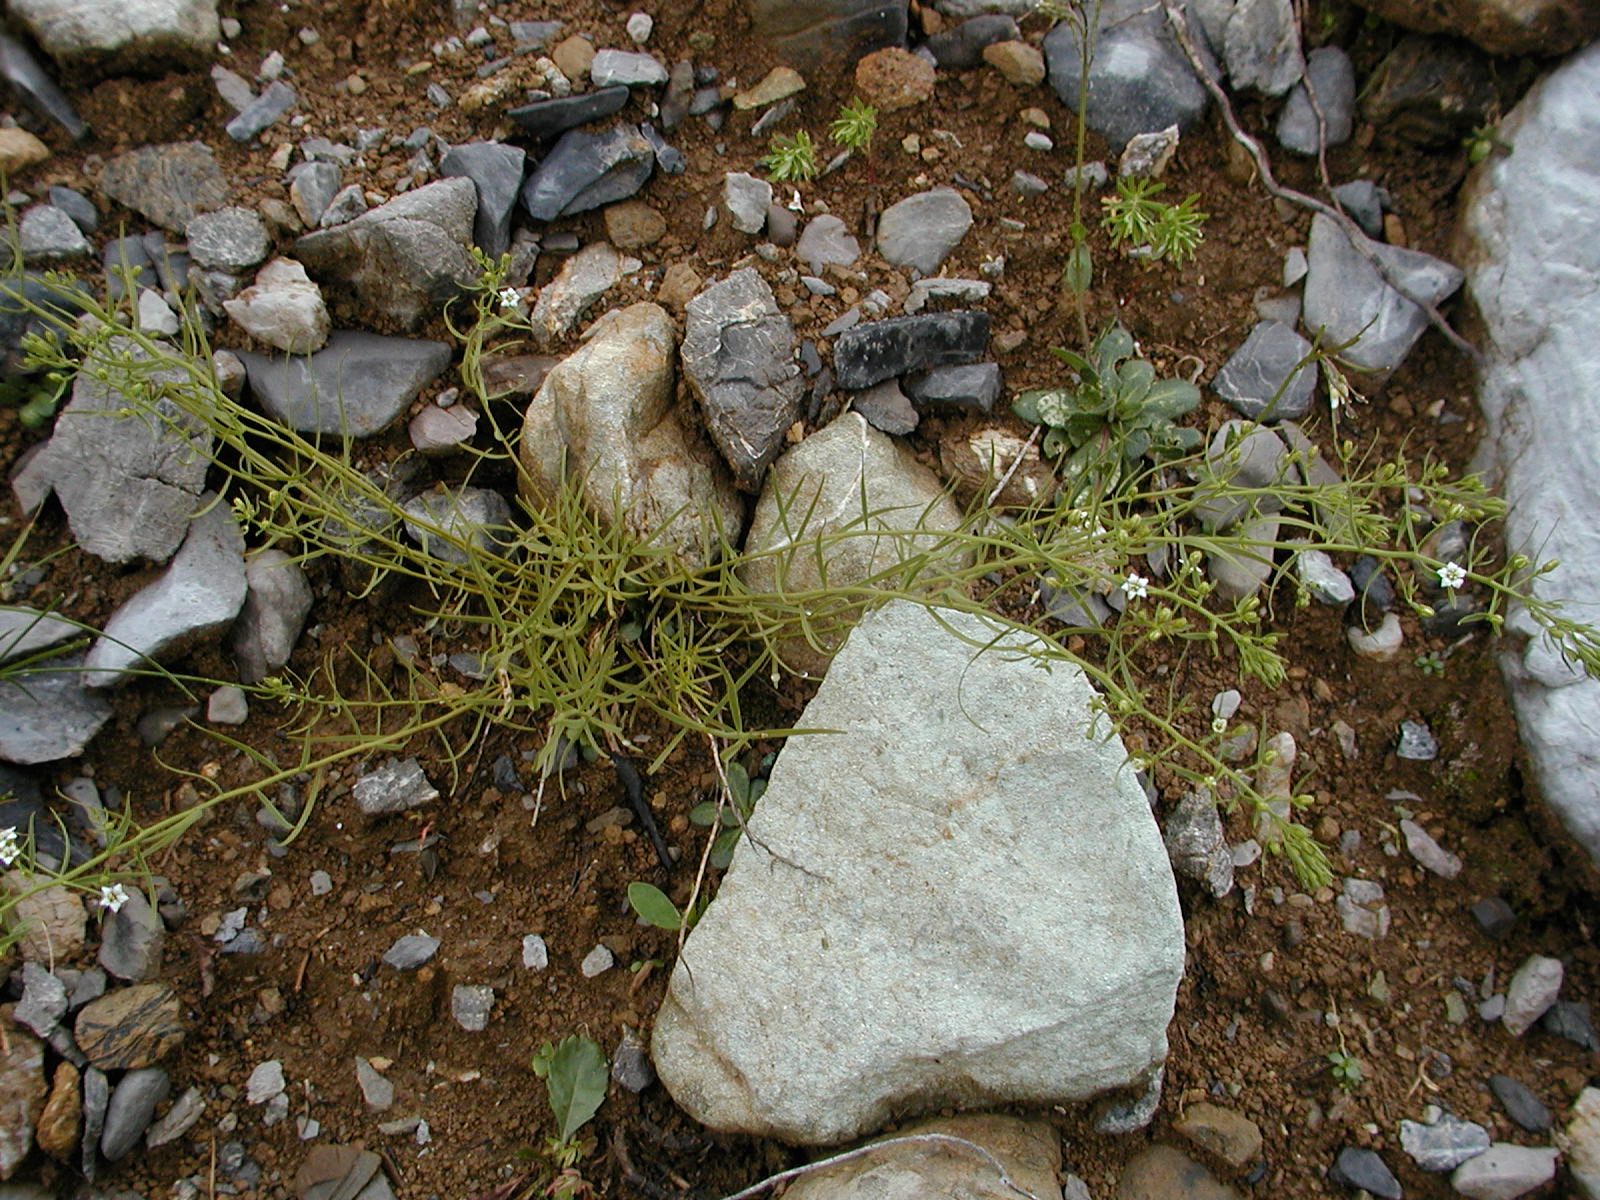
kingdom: Plantae
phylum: Tracheophyta
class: Magnoliopsida
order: Santalales
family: Thesiaceae
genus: Thesium
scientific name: Thesium alpinum
